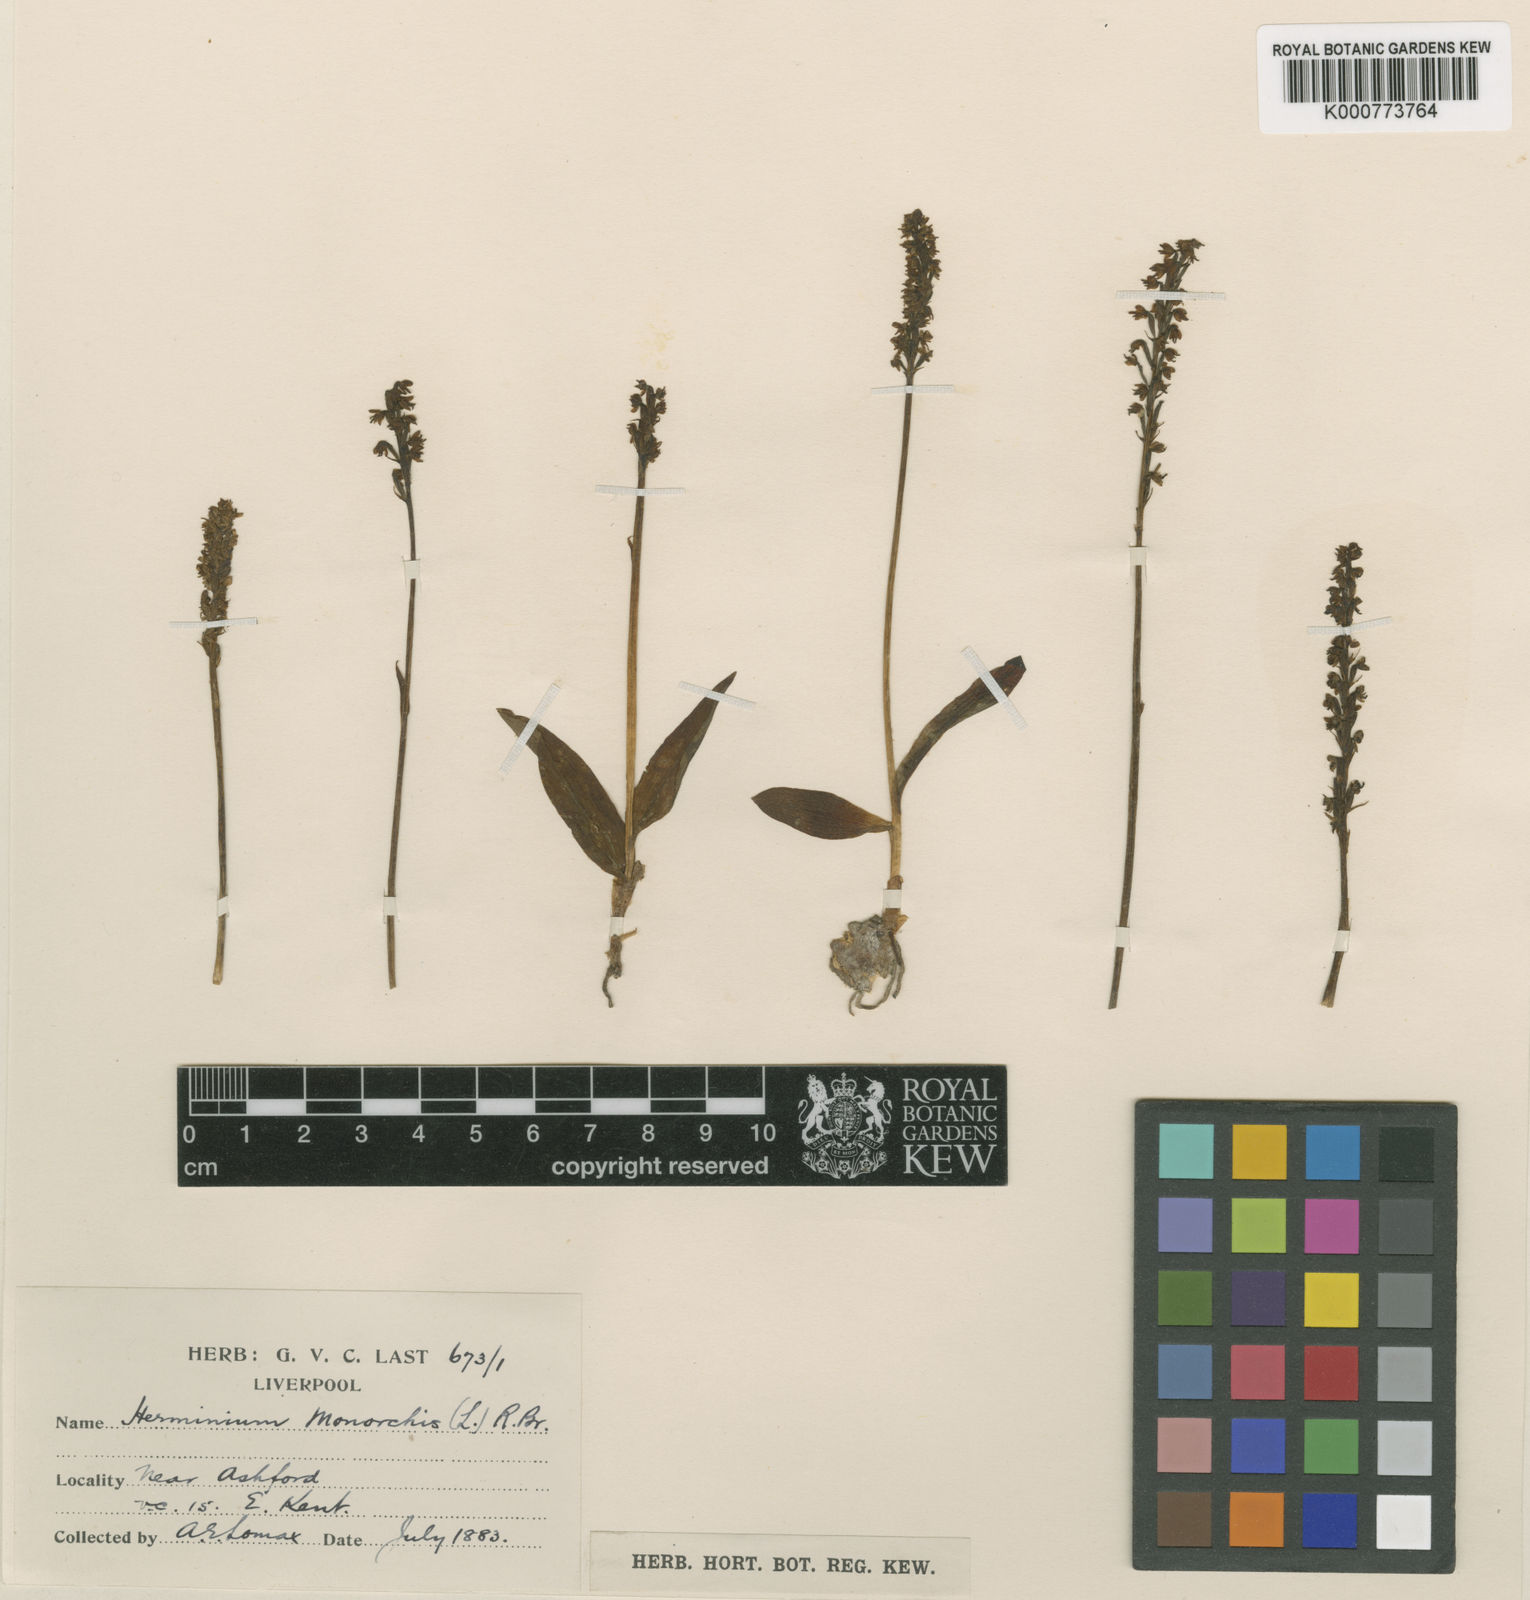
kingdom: Plantae
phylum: Tracheophyta
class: Liliopsida
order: Asparagales
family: Orchidaceae
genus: Herminium
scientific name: Herminium monorchis
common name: Musk orchid
